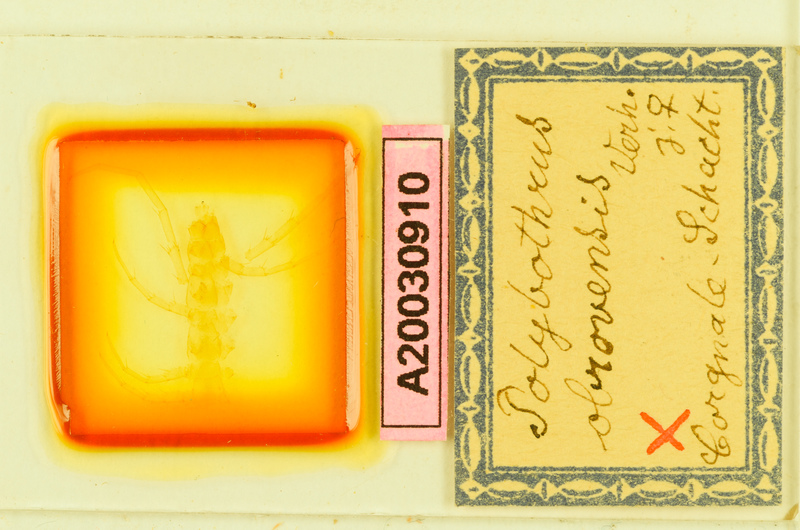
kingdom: Animalia
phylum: Arthropoda
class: Chilopoda
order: Lithobiomorpha
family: Lithobiidae
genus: Polybothrus
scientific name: Polybothrus obrovensis
